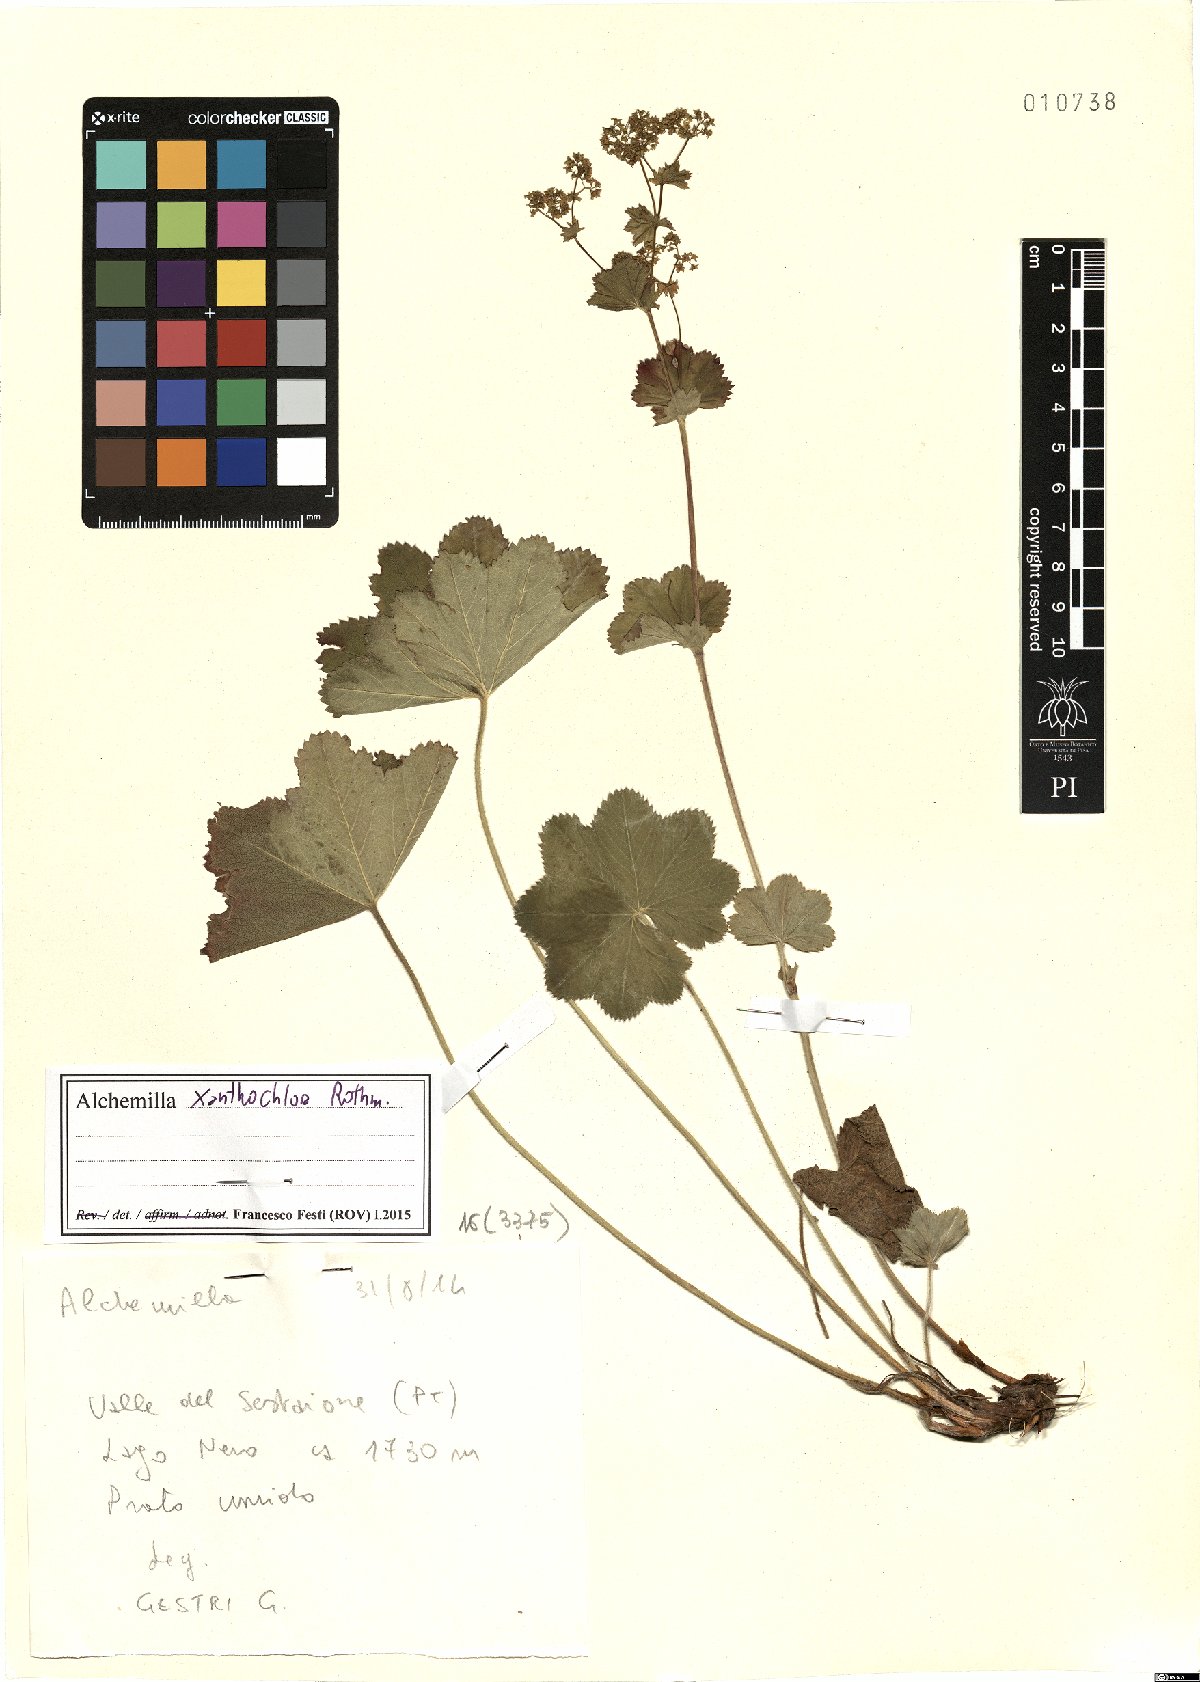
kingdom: Plantae
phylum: Tracheophyta
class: Magnoliopsida
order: Rosales
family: Rosaceae
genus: Alchemilla
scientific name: Alchemilla xanthochlora
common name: Intermediate lady's-mantle
